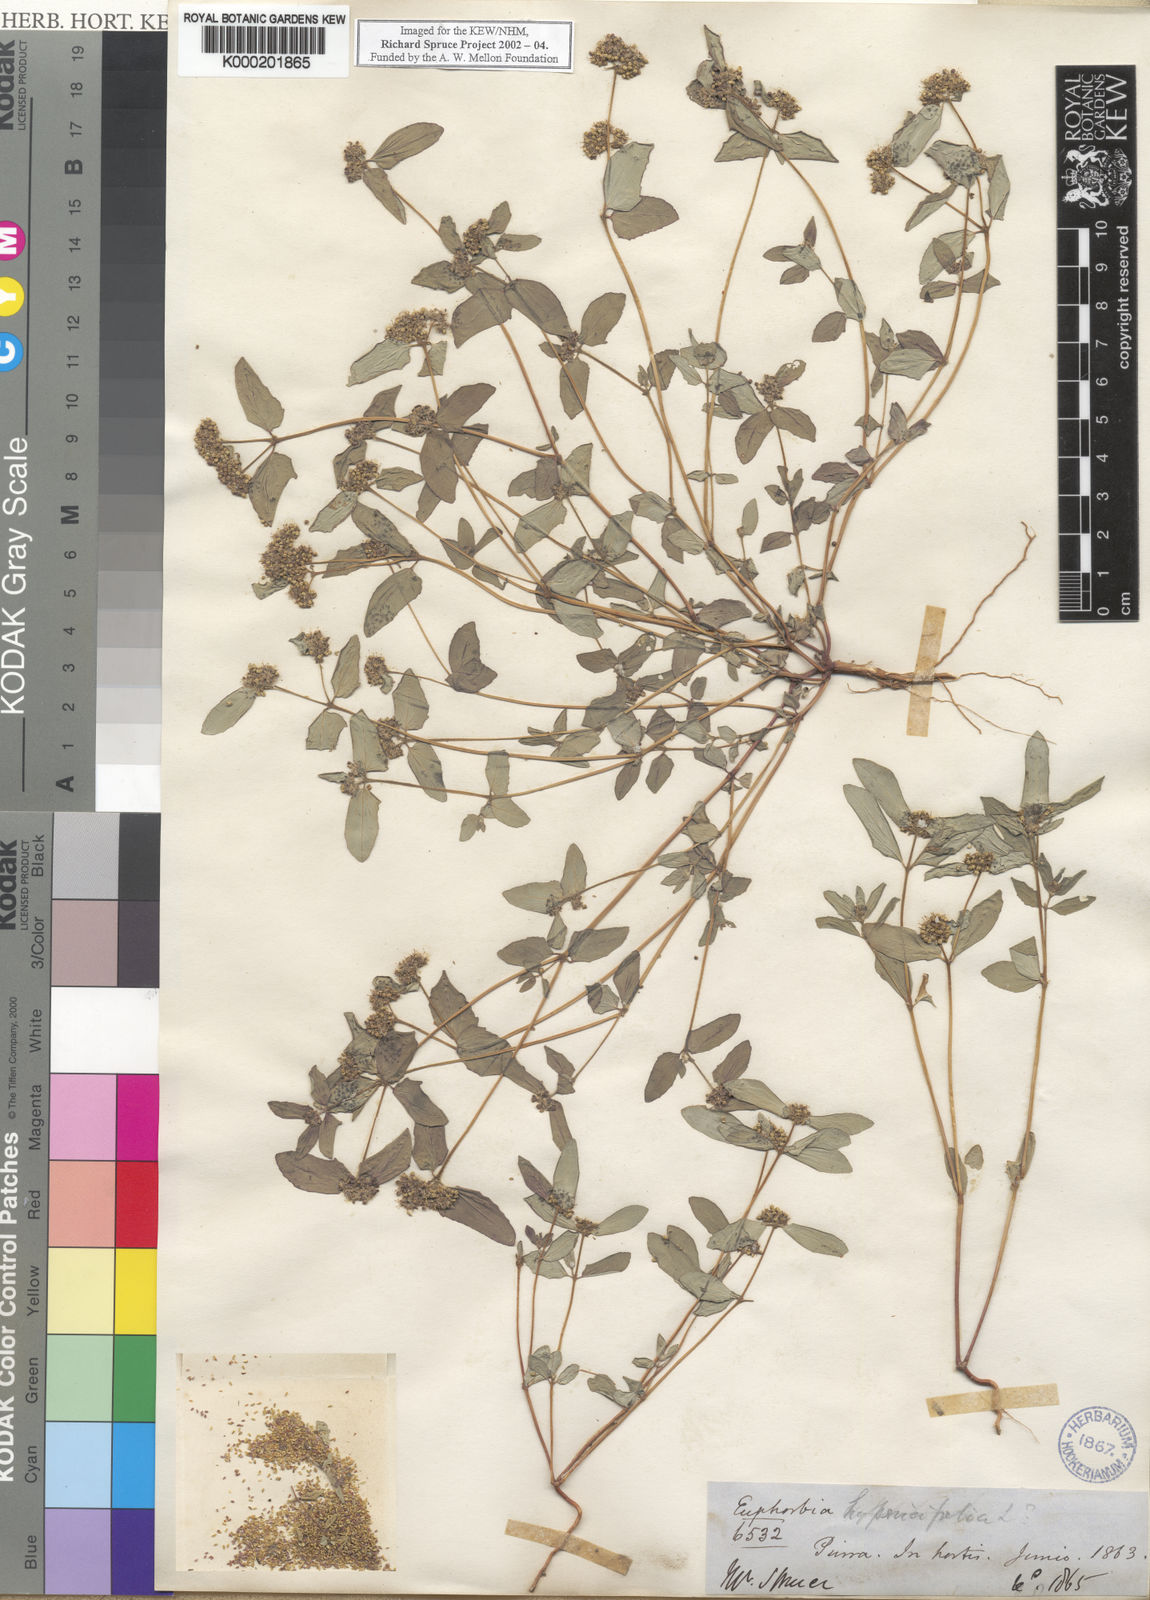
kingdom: Plantae
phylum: Tracheophyta
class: Magnoliopsida
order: Malpighiales
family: Euphorbiaceae
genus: Euphorbia
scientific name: Euphorbia hypericifolia
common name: Graceful sandmat
